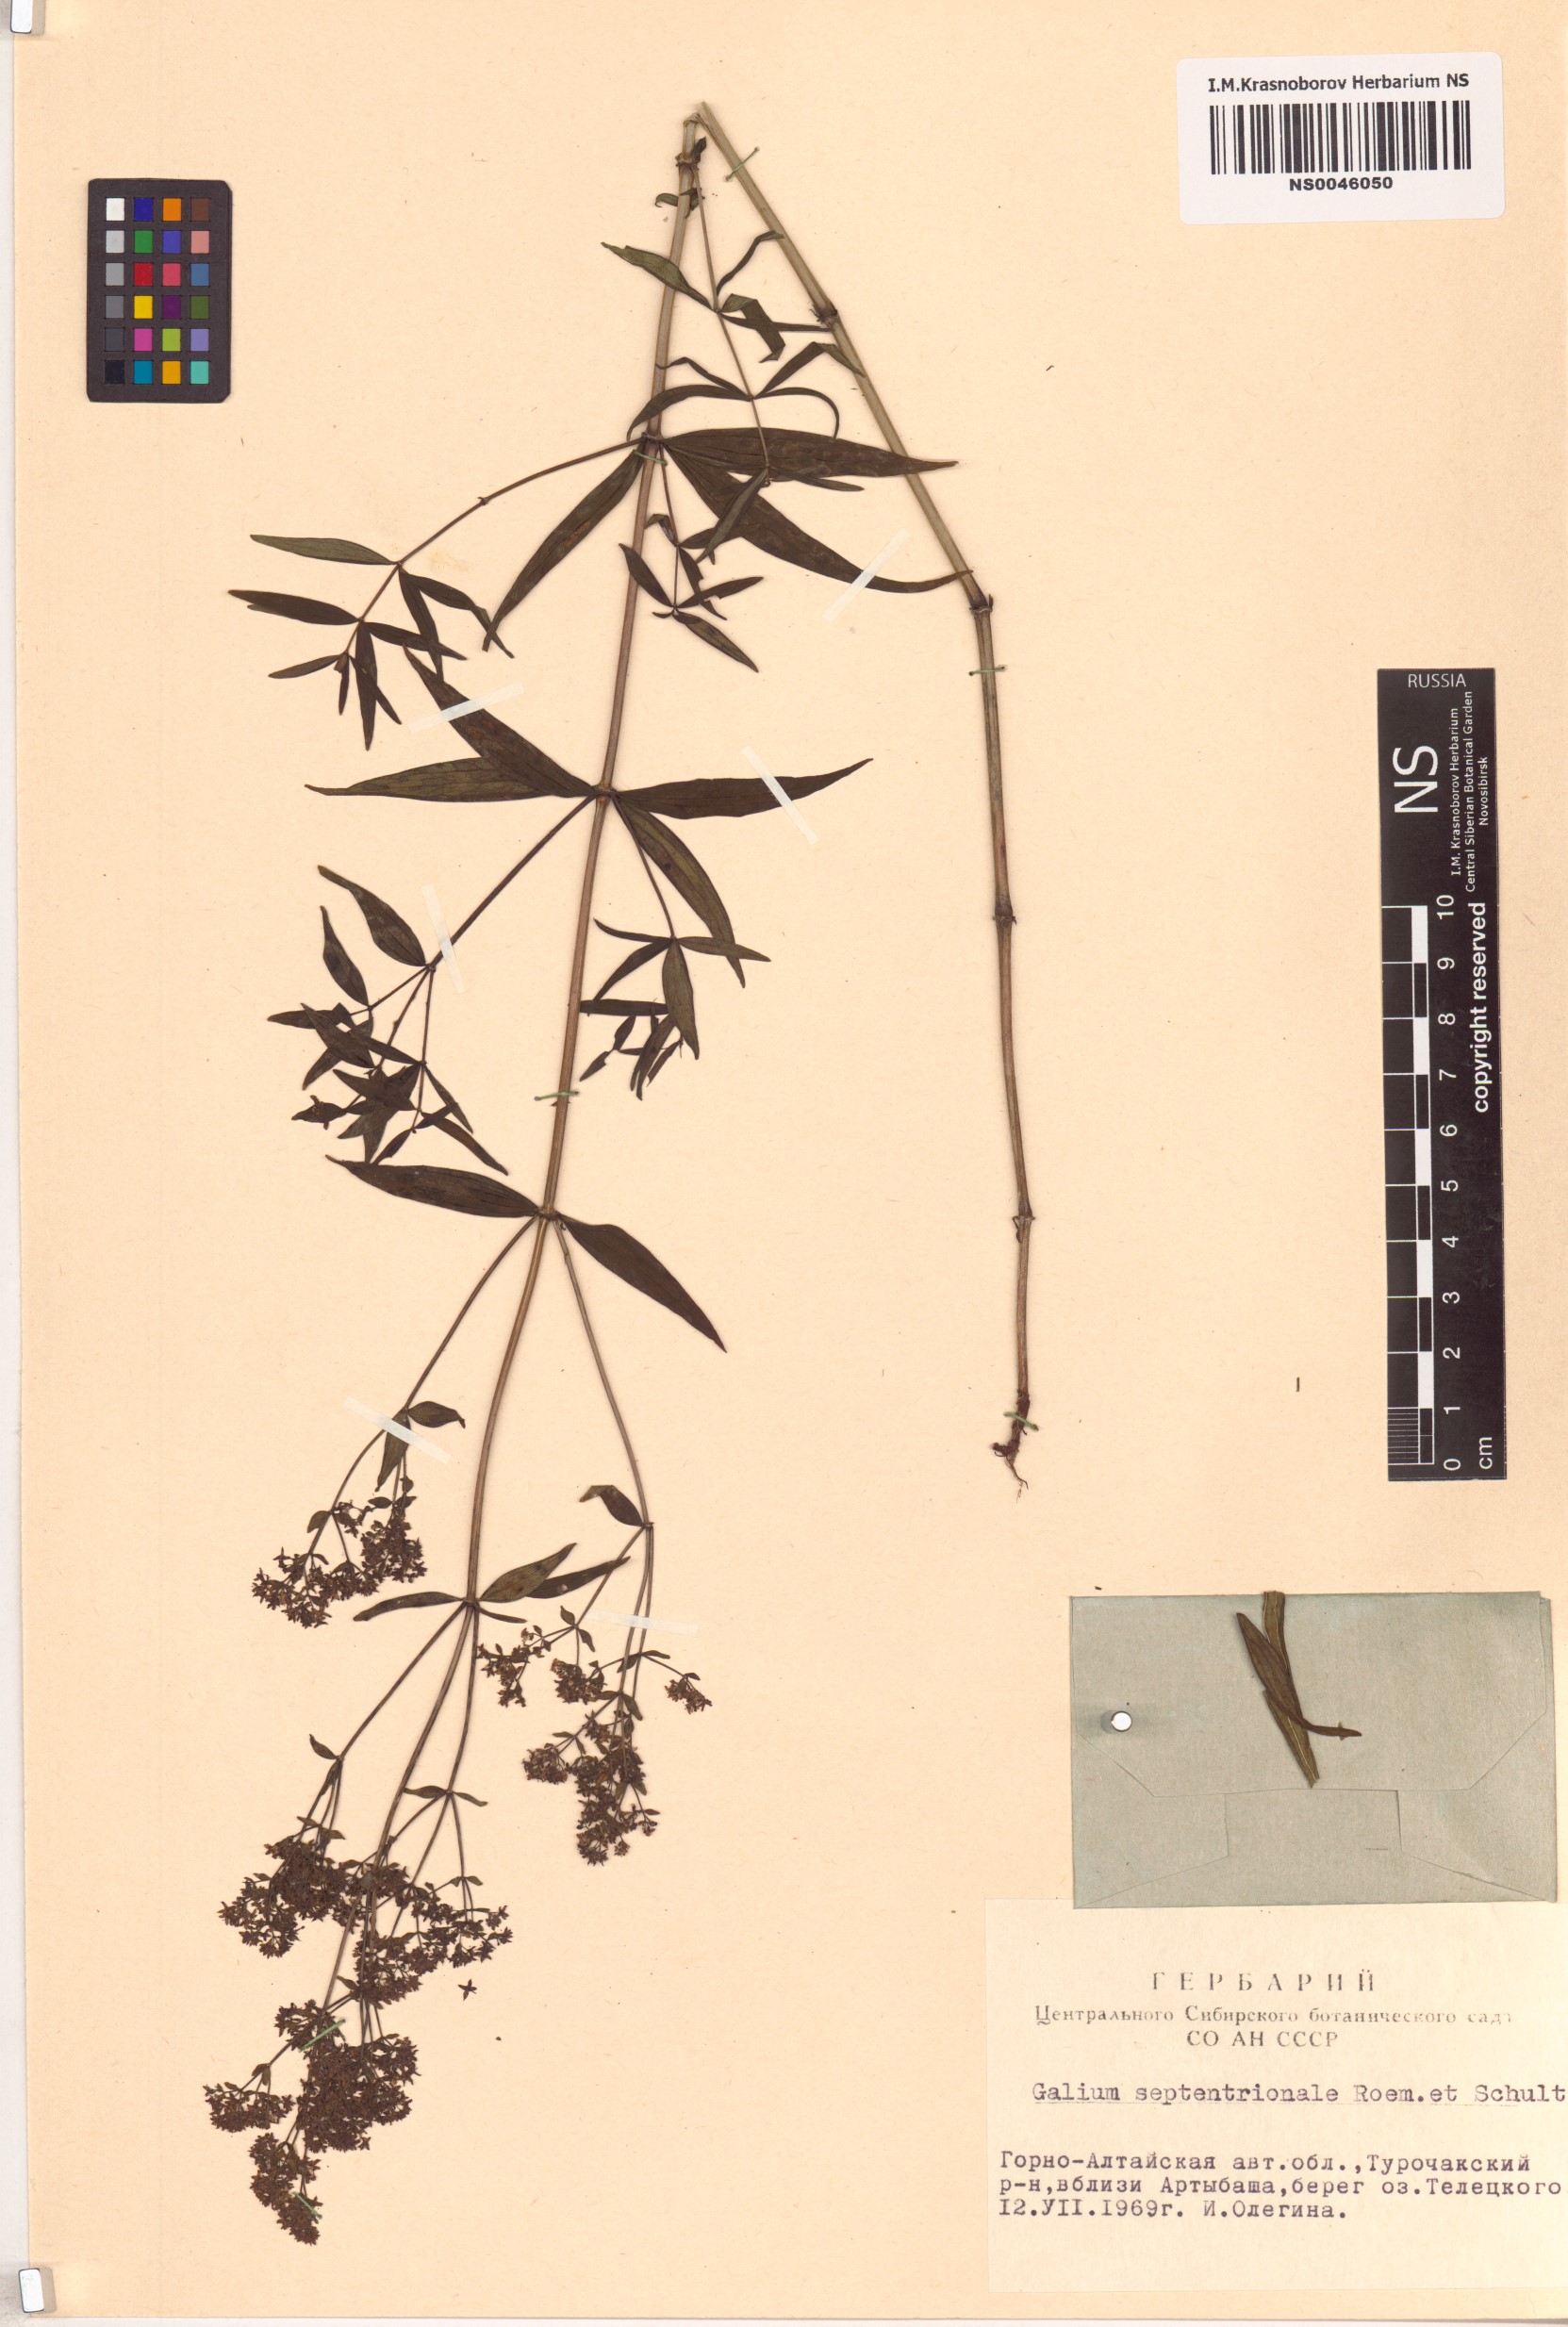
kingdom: Plantae
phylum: Tracheophyta
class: Magnoliopsida
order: Gentianales
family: Rubiaceae
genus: Galium
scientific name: Galium boreale
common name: Northern bedstraw
